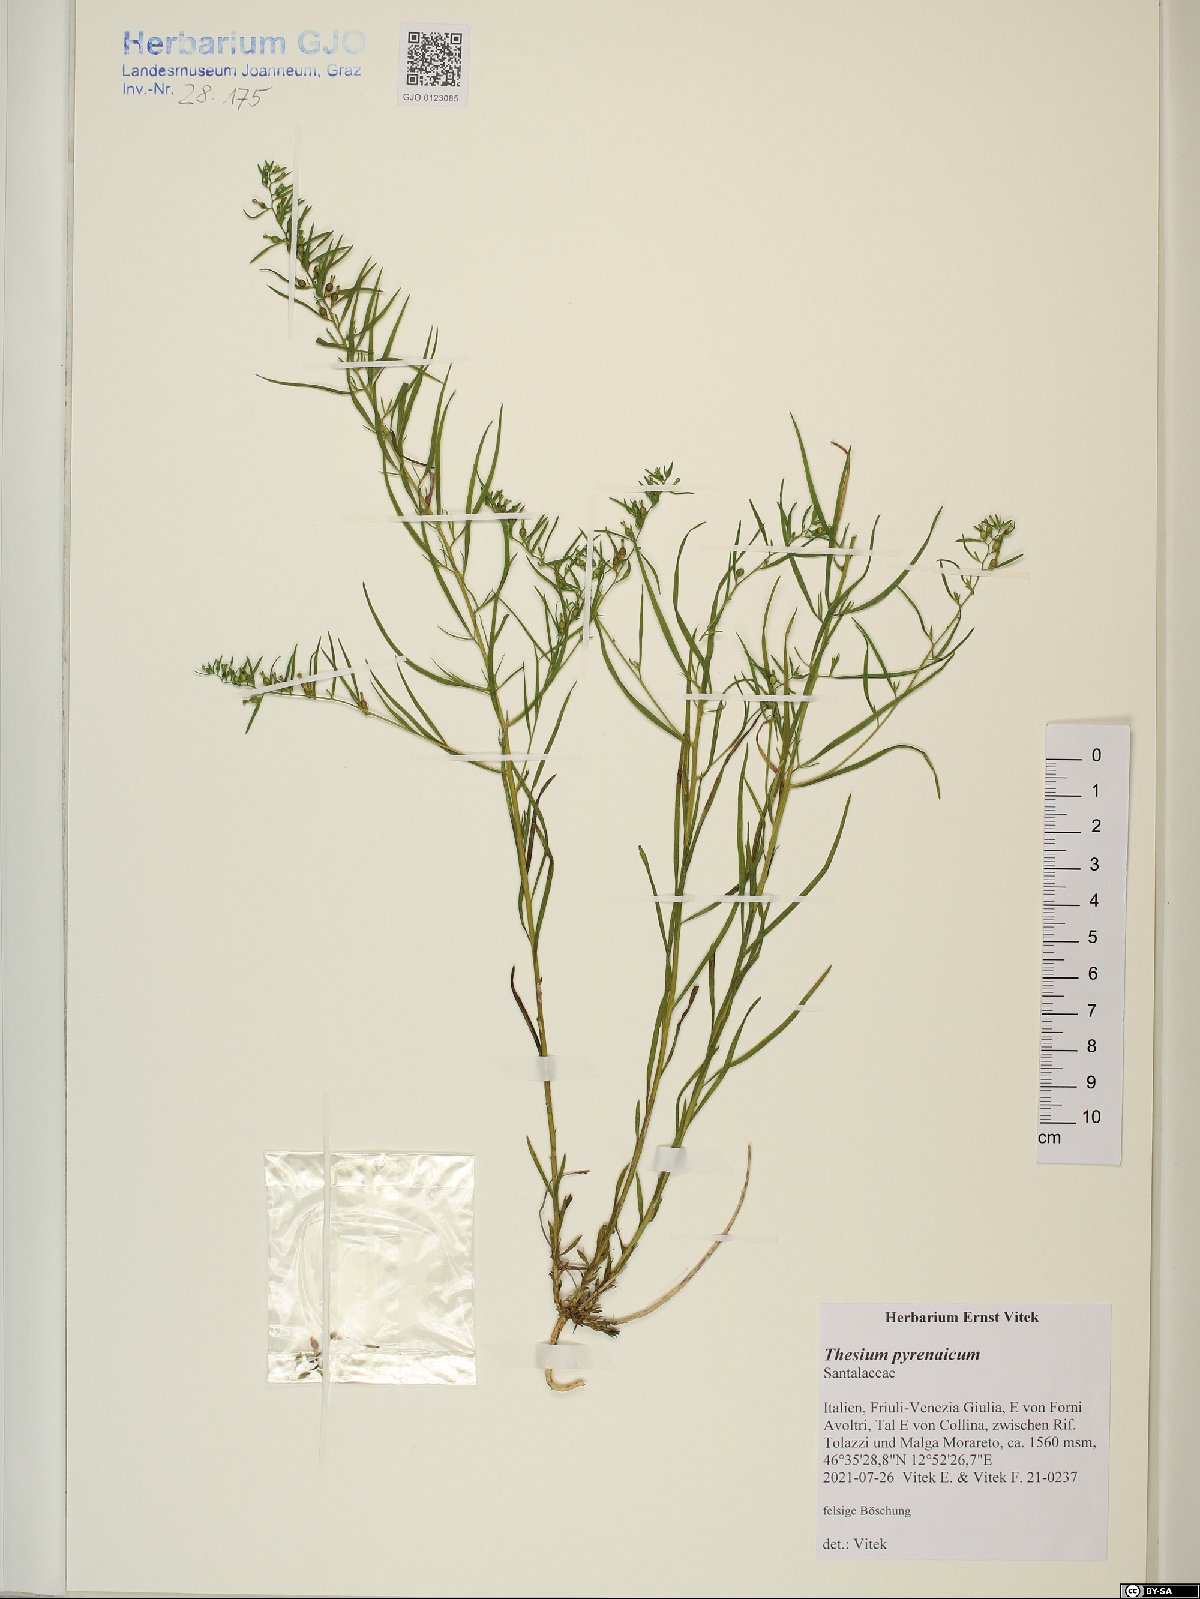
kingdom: Plantae
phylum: Tracheophyta
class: Magnoliopsida
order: Santalales
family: Thesiaceae
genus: Thesium
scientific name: Thesium pyrenaicum
